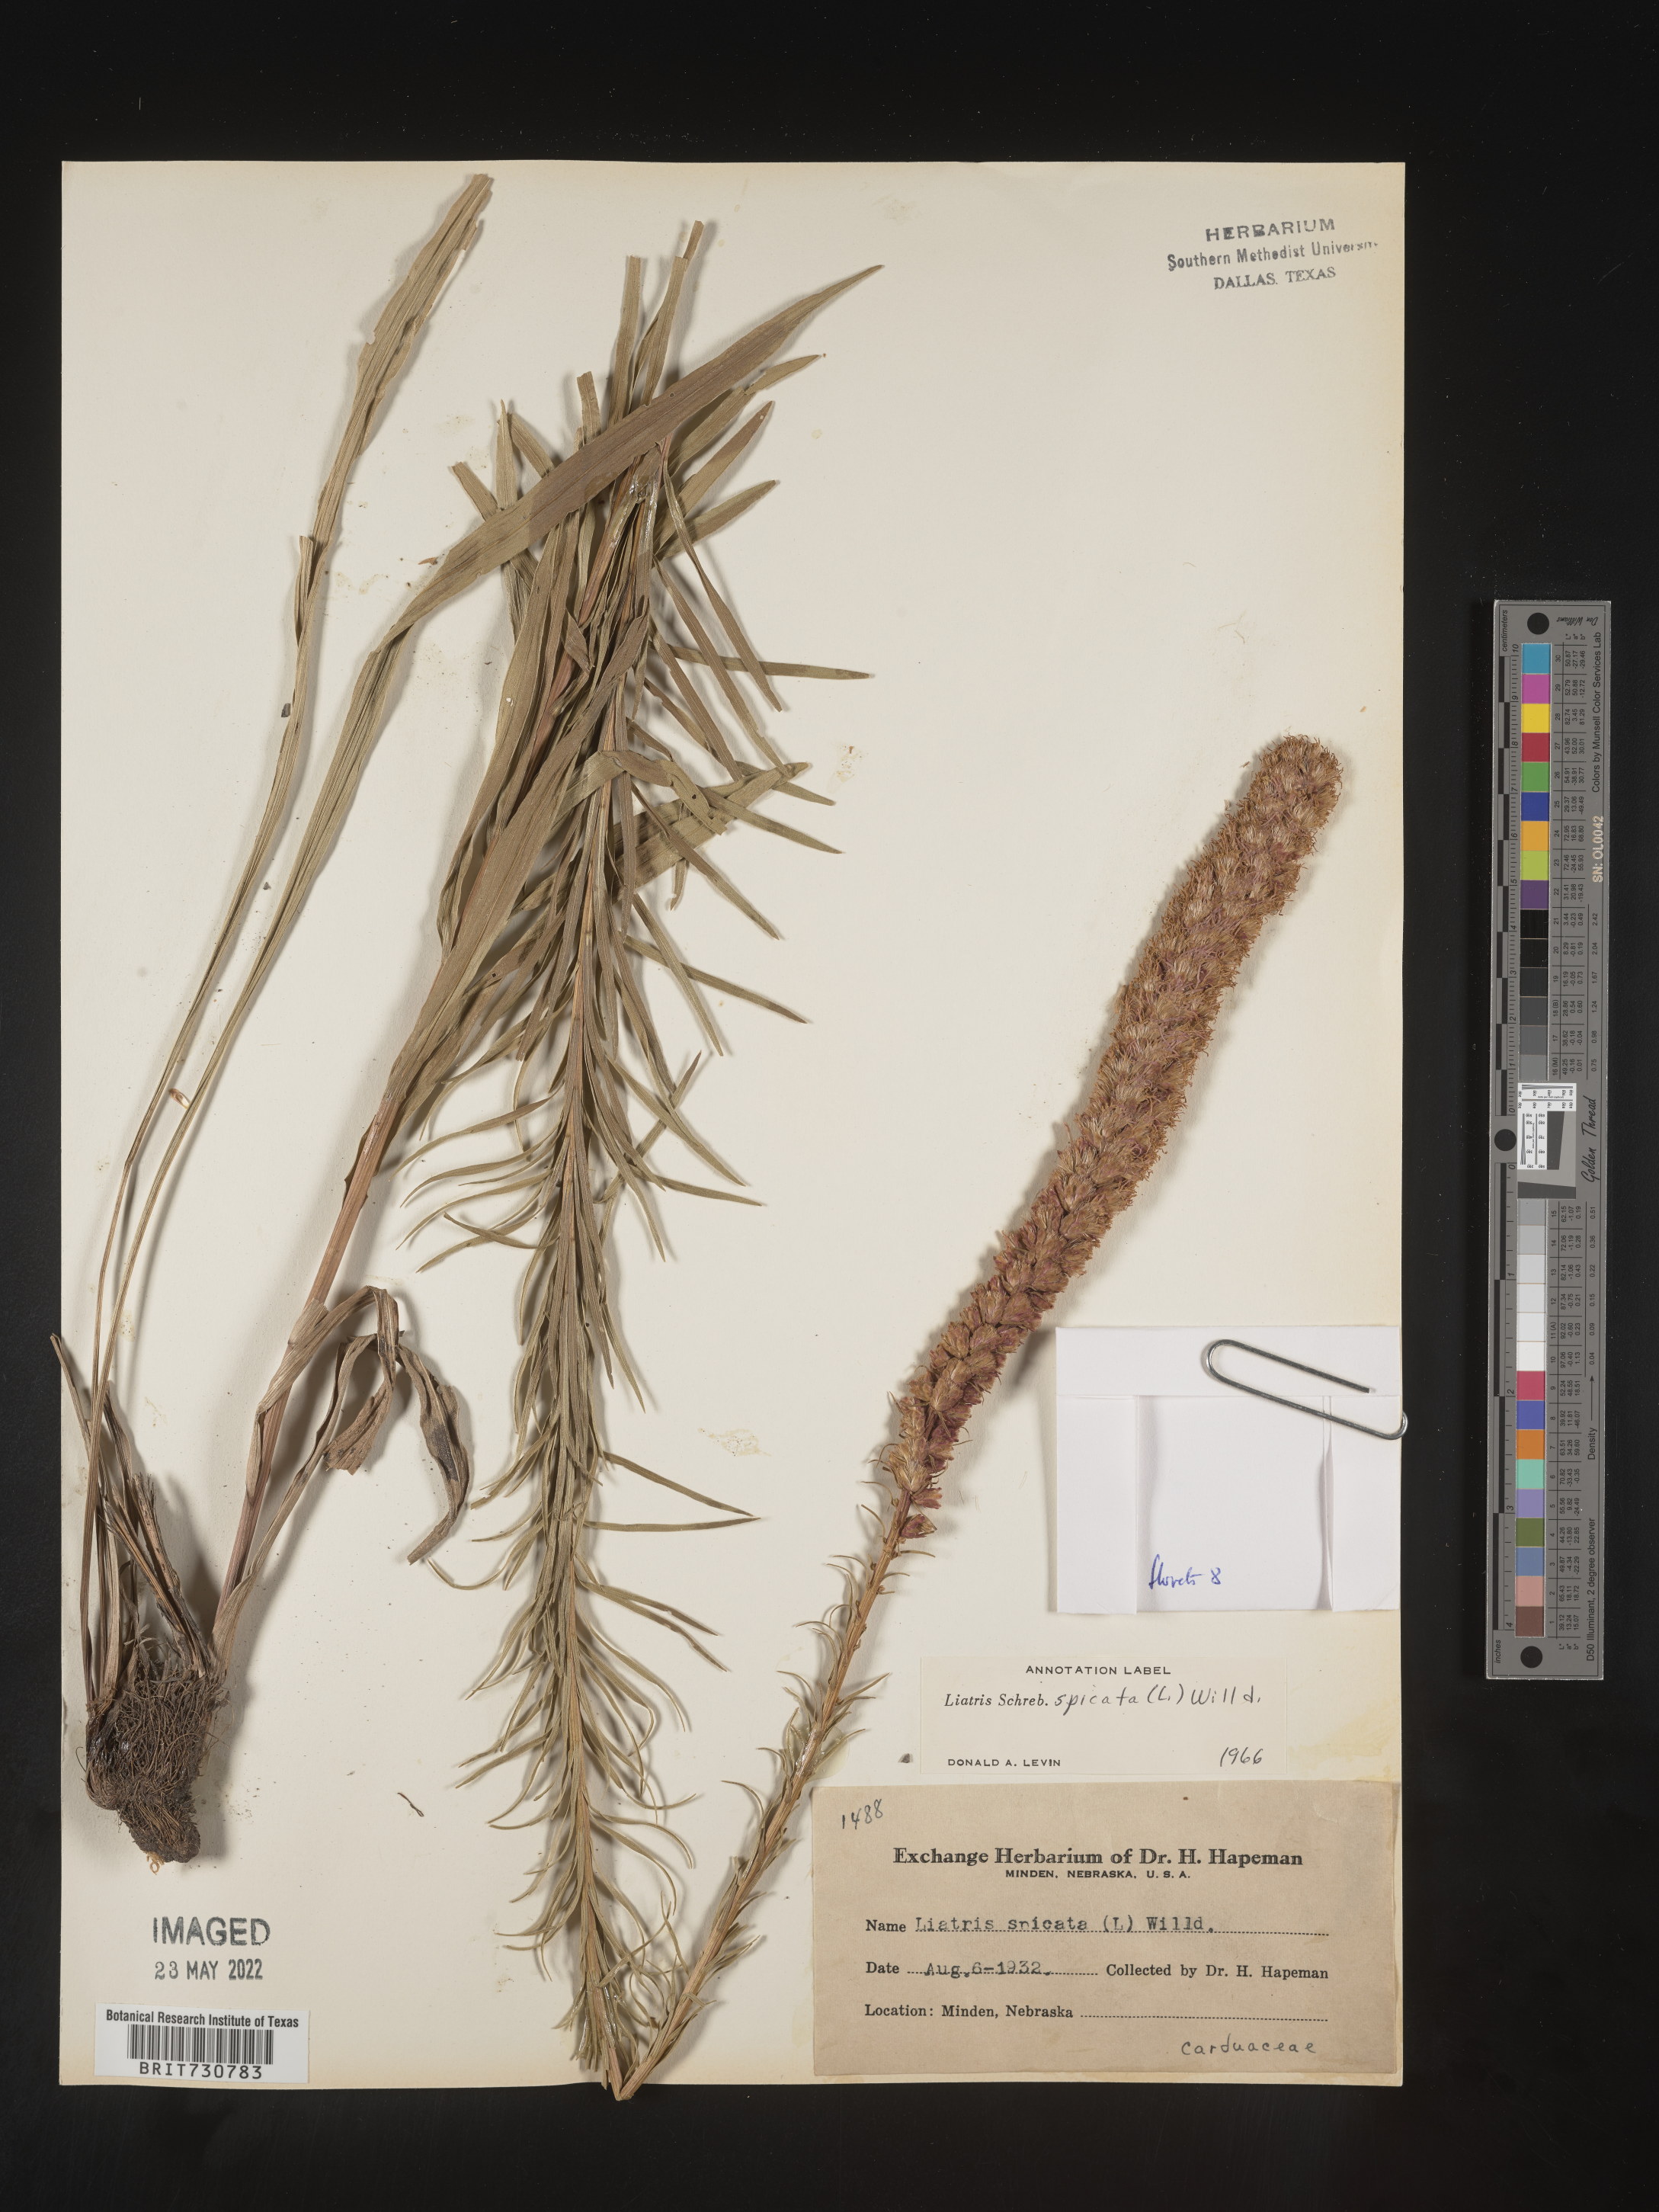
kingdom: Plantae
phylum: Tracheophyta
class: Magnoliopsida
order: Asterales
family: Asteraceae
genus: Liatris
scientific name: Liatris lancifolia
